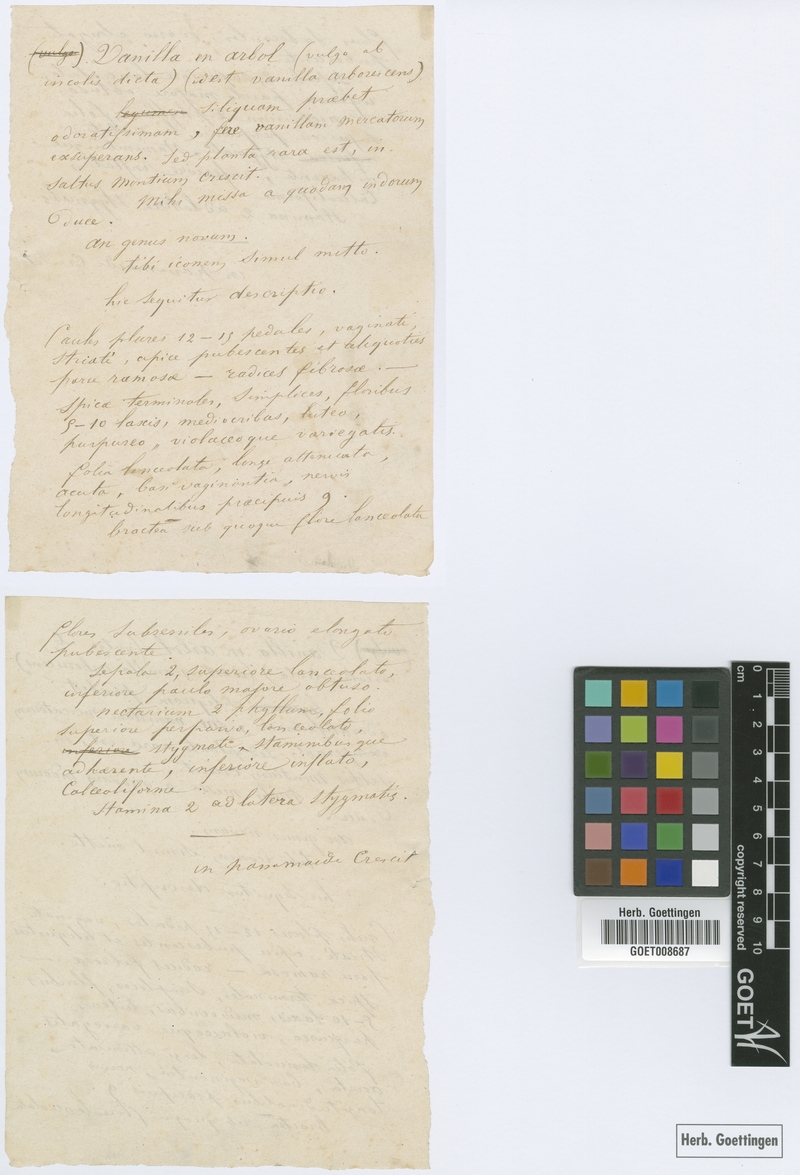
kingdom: Plantae
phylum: Tracheophyta
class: Liliopsida
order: Asparagales
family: Orchidaceae
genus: Selenipedium
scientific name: Selenipedium chica
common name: Beautiful selenipedium
